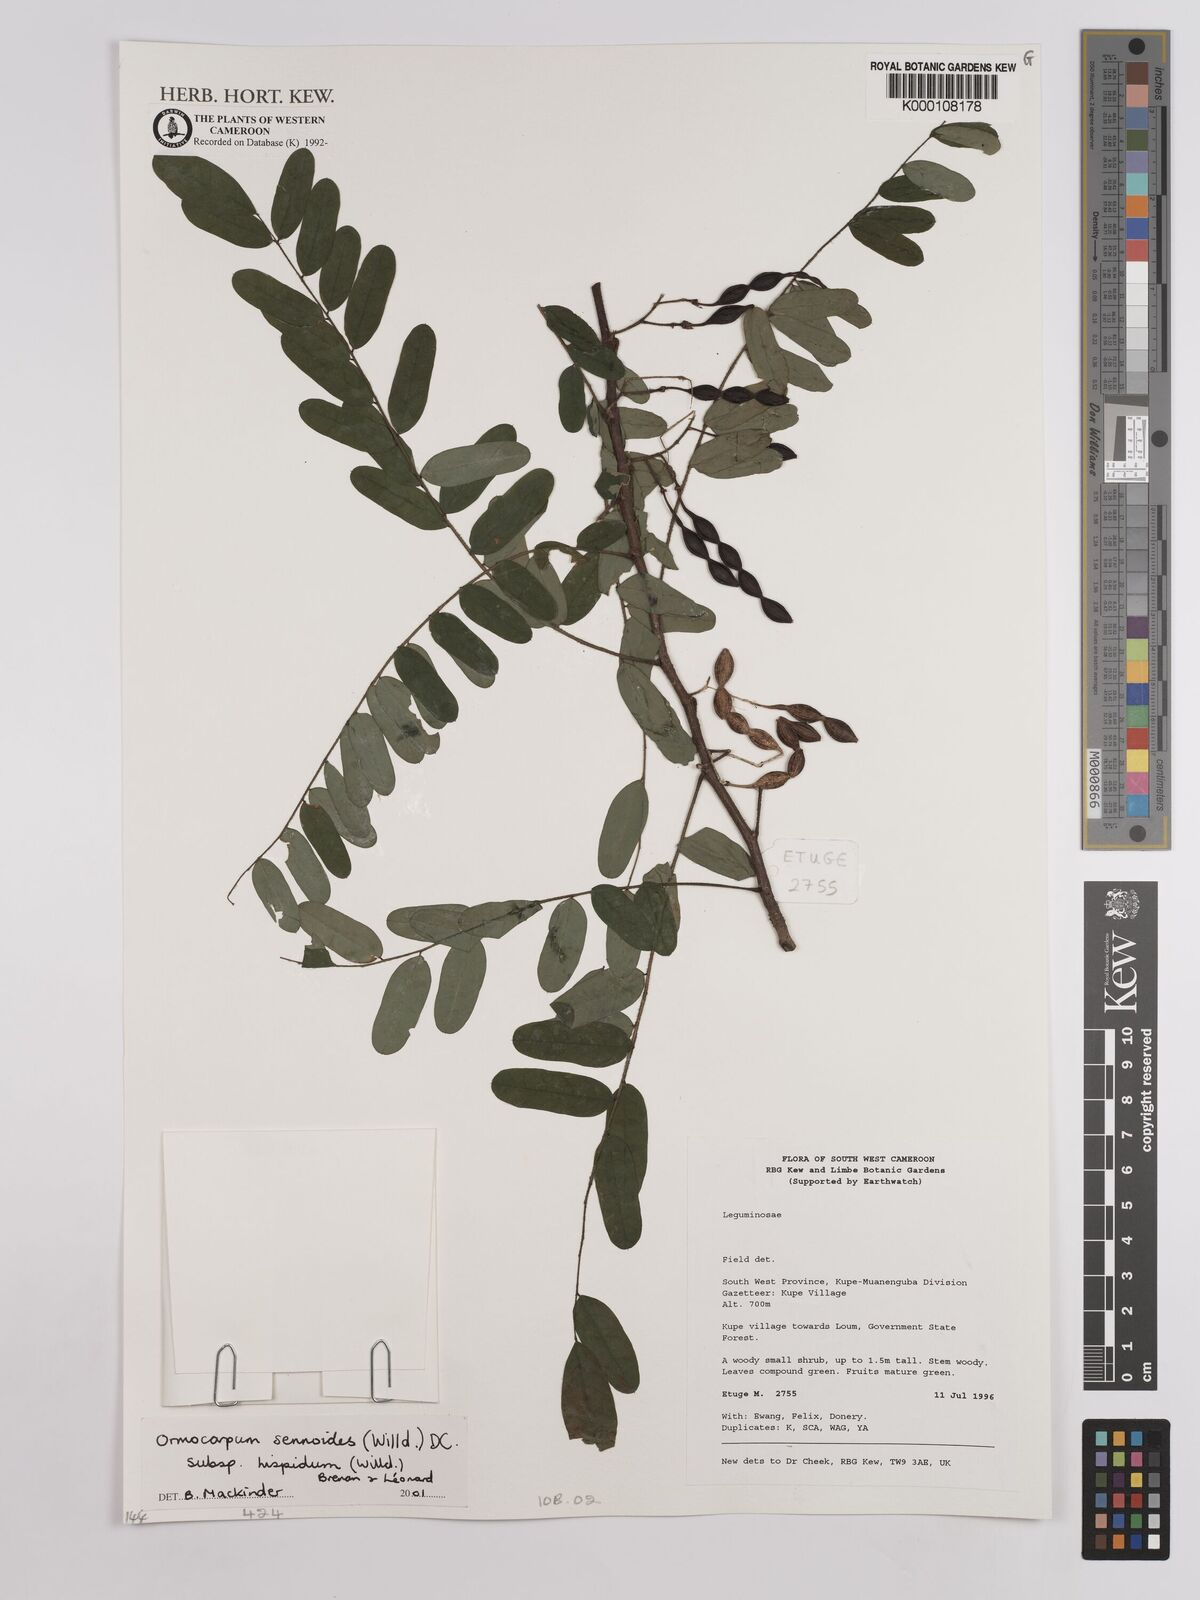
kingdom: Plantae
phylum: Tracheophyta
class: Magnoliopsida
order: Fabales
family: Fabaceae
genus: Ormocarpum
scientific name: Ormocarpum sennoides
